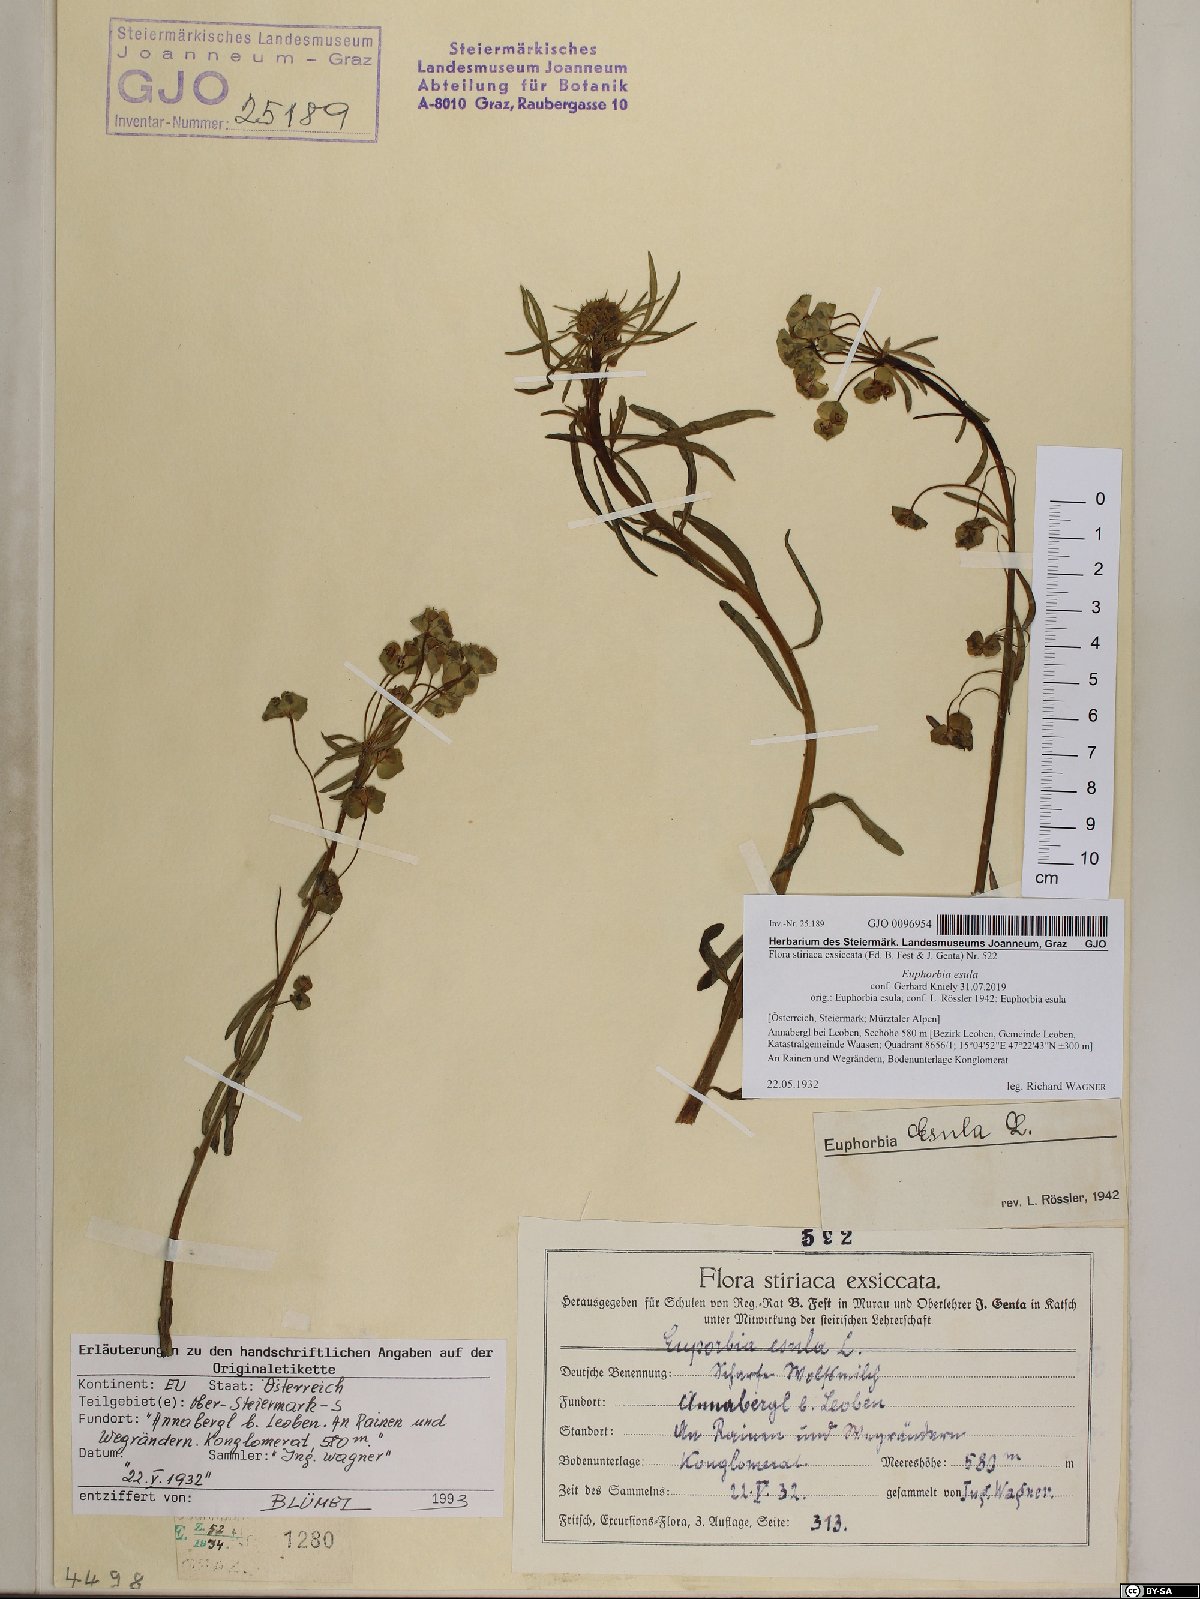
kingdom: Plantae
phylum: Tracheophyta
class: Magnoliopsida
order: Malpighiales
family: Euphorbiaceae
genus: Euphorbia
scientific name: Euphorbia esula
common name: Leafy spurge
